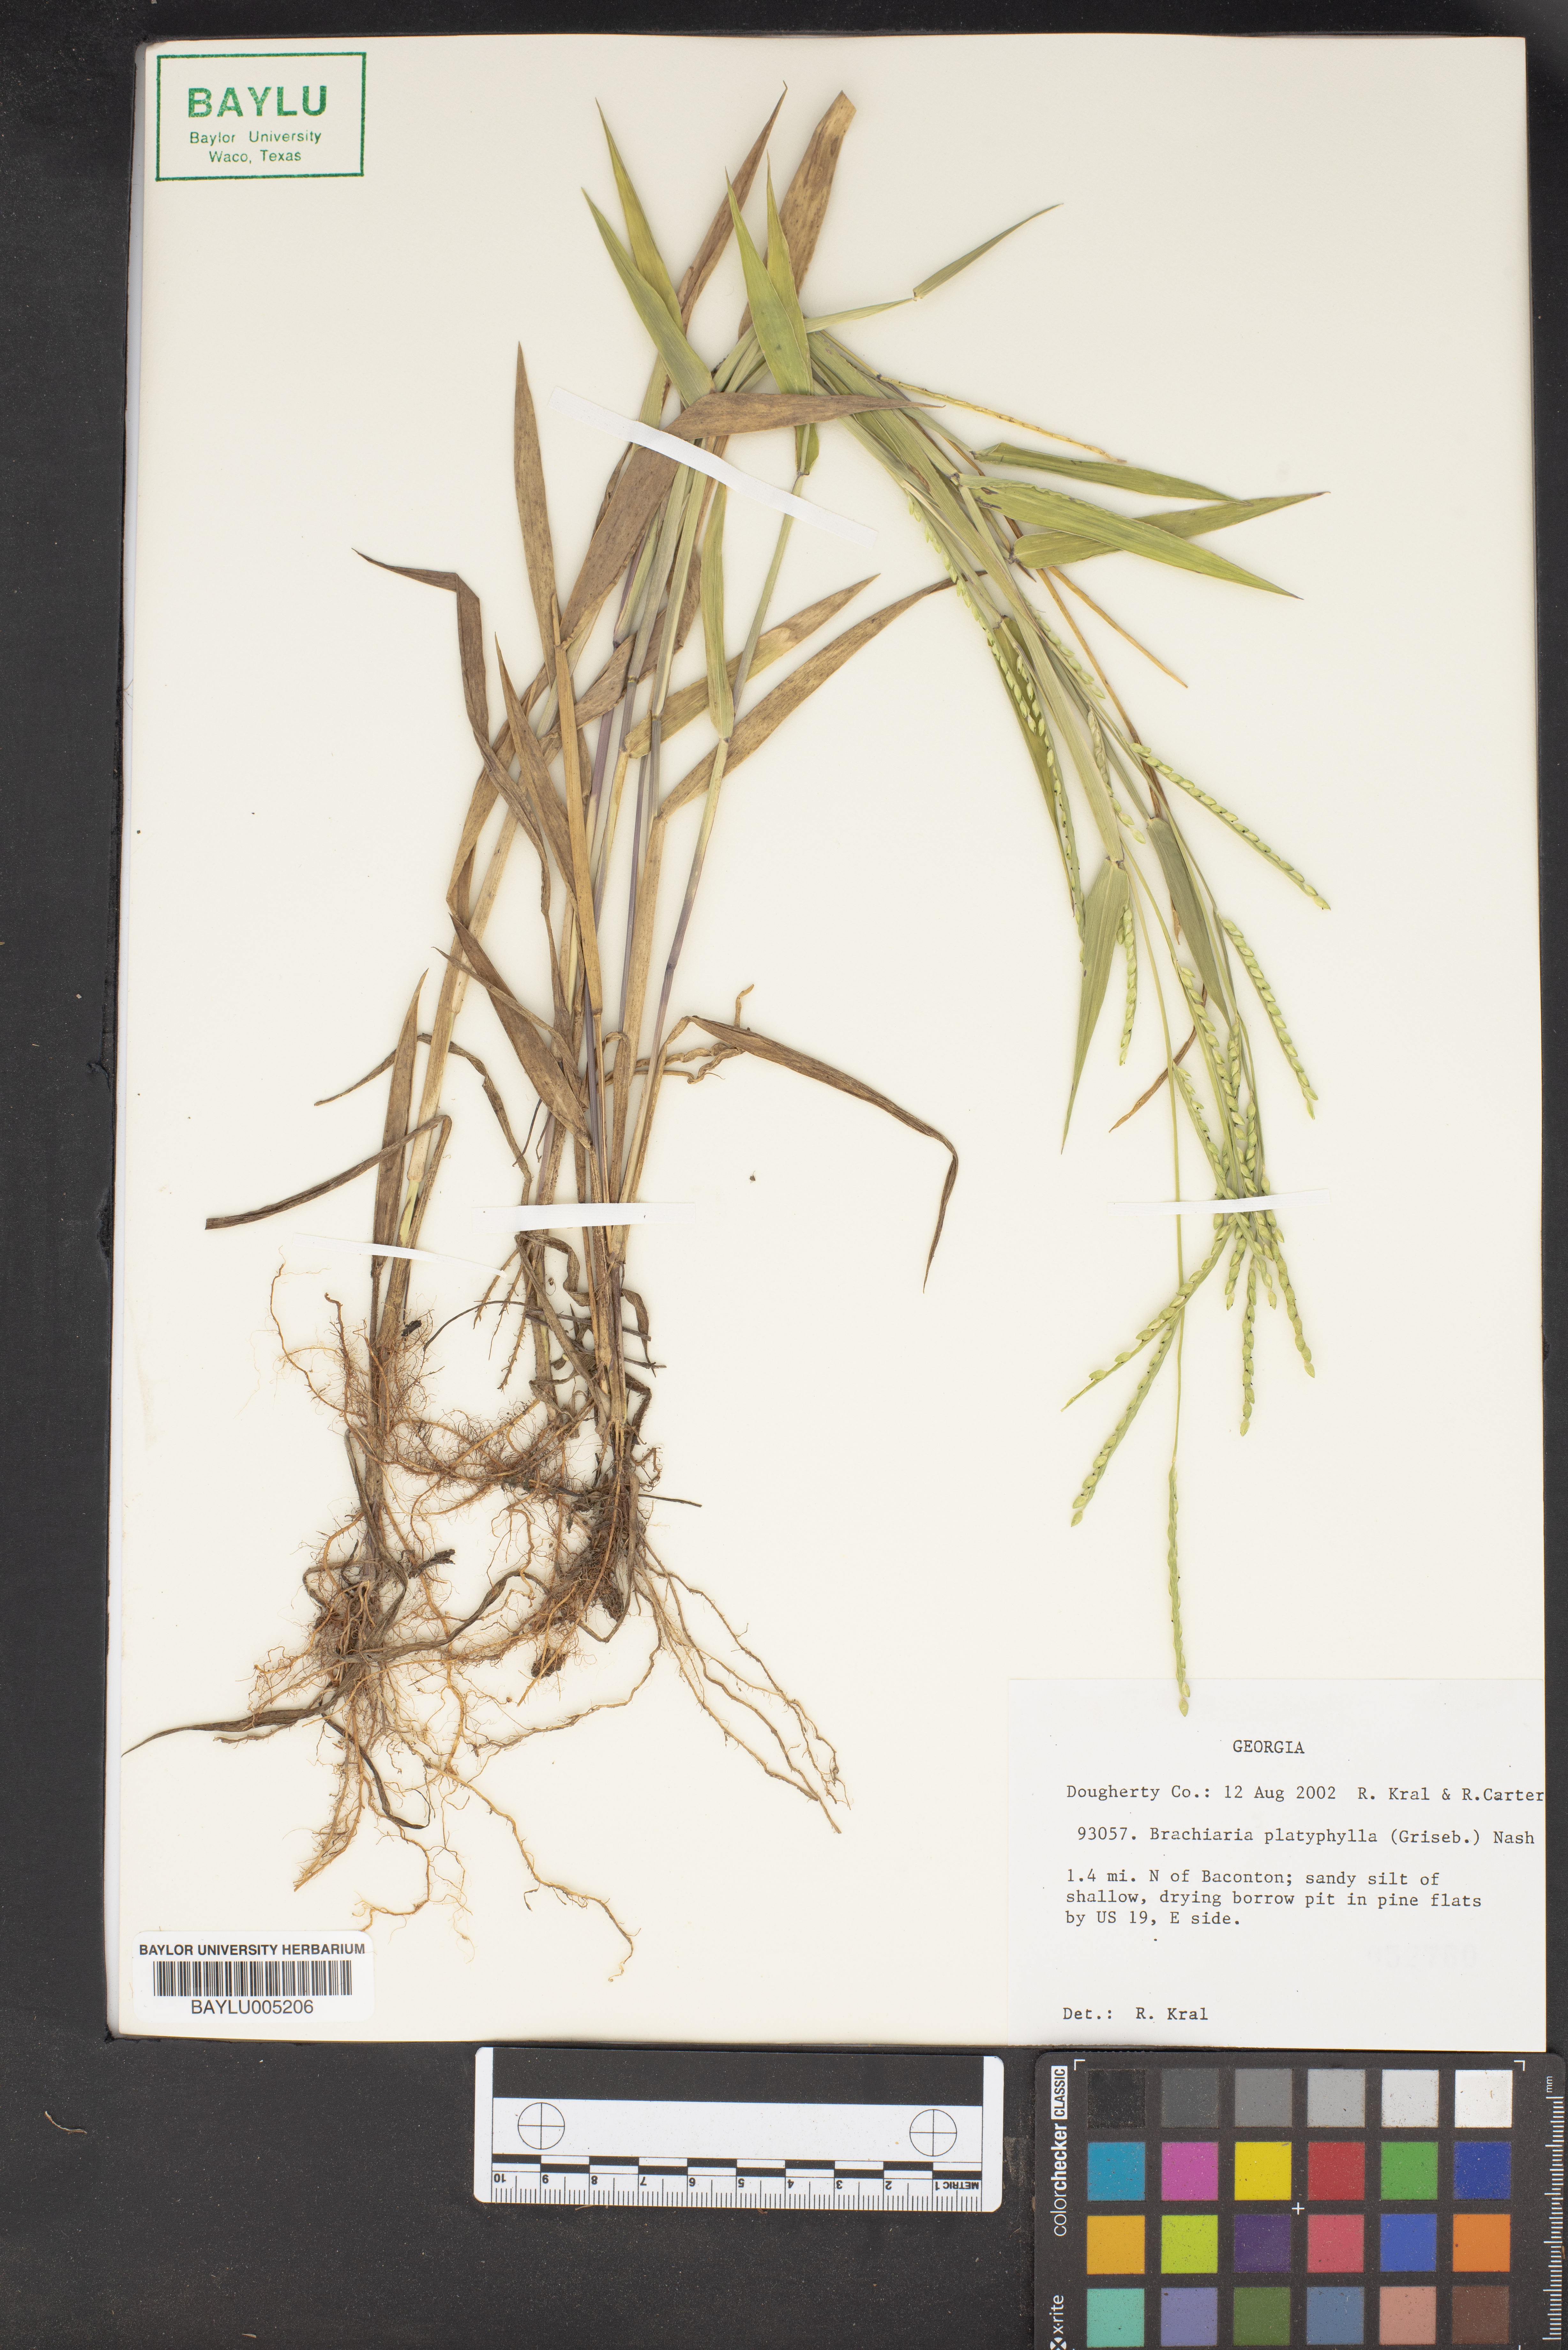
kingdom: Plantae
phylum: Tracheophyta
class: Liliopsida
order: Poales
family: Poaceae
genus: Urochloa
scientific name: Urochloa platyphylla
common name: White para grass
